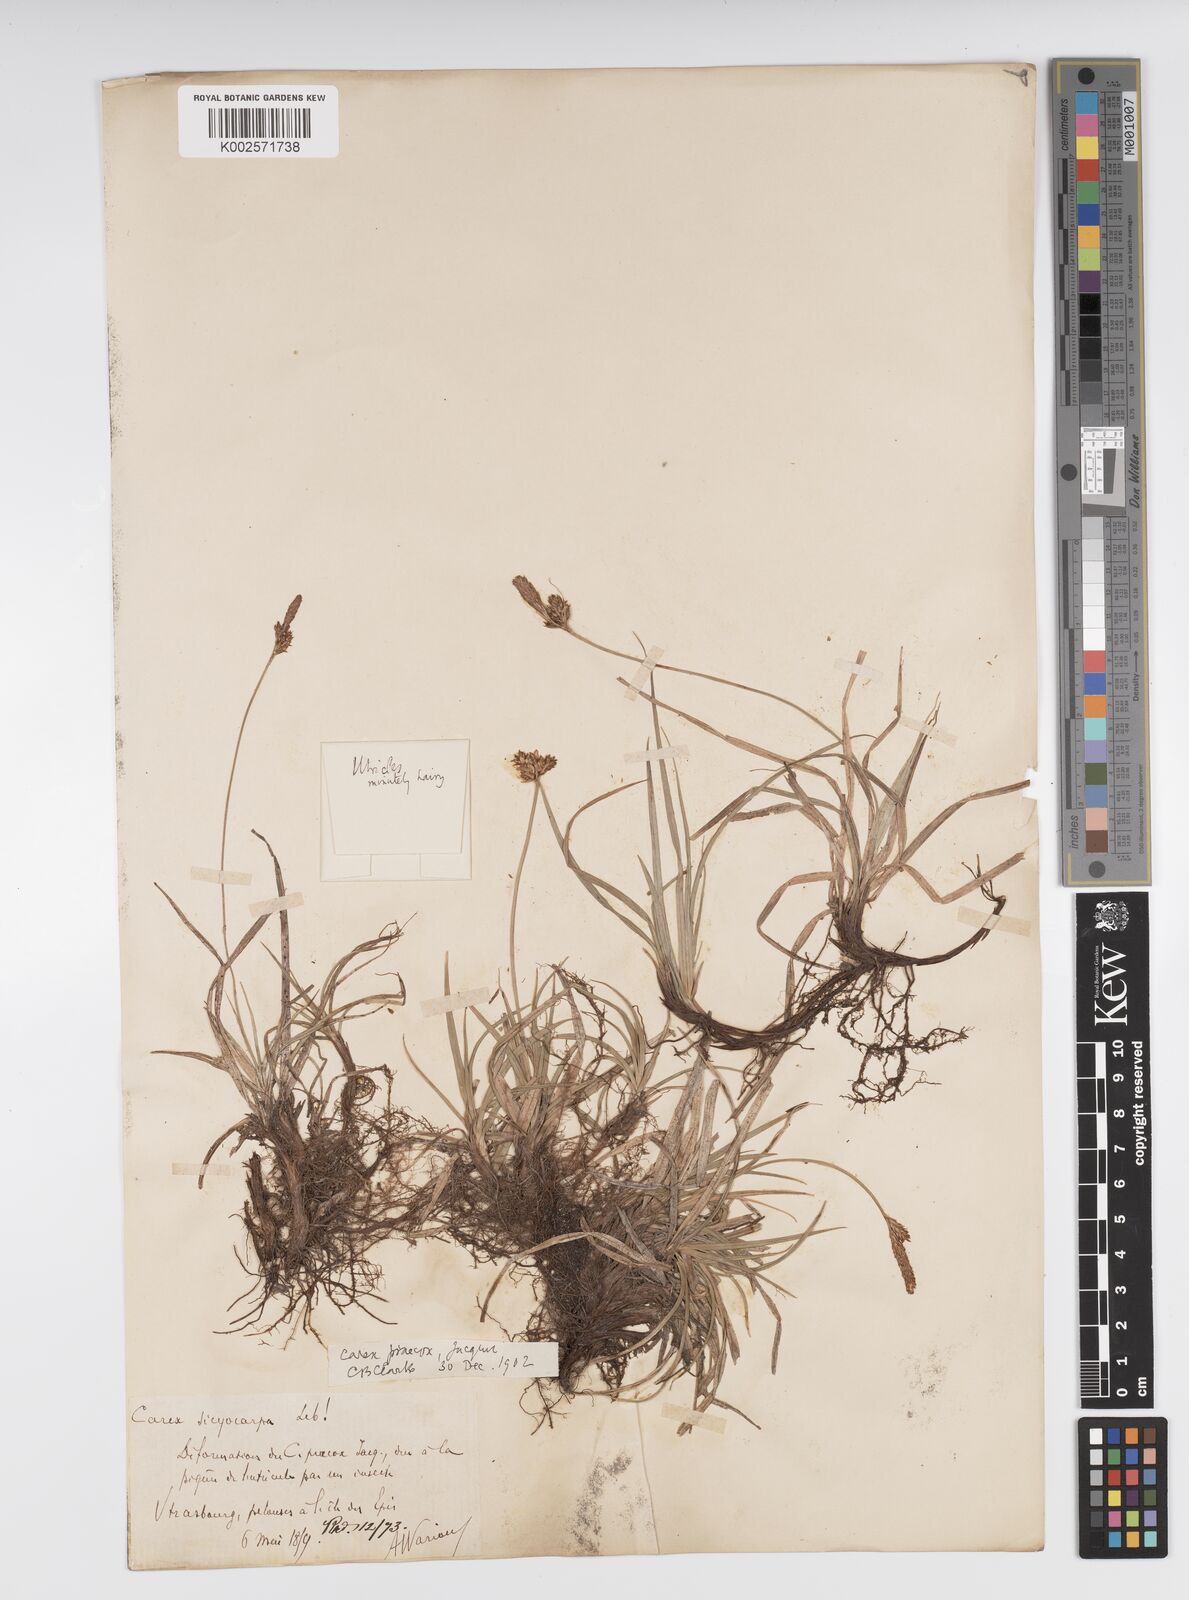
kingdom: Plantae
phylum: Tracheophyta
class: Liliopsida
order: Poales
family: Cyperaceae
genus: Carex
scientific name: Carex caryophyllea
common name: Spring sedge
